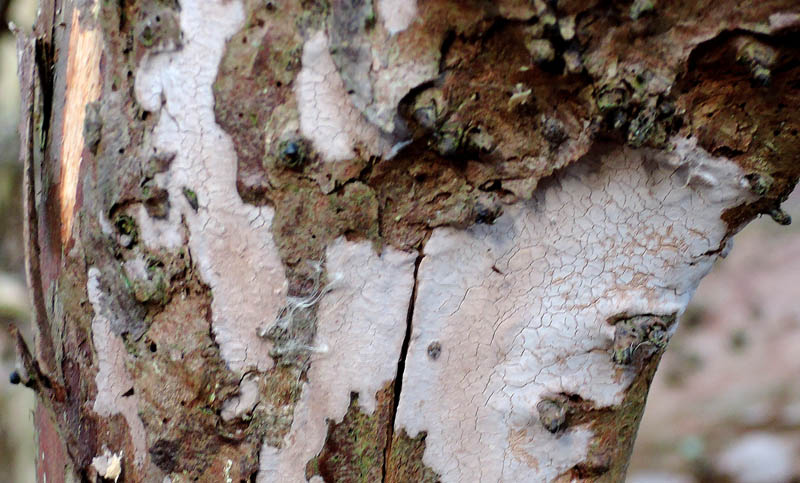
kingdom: Fungi
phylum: Basidiomycota
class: Agaricomycetes
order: Russulales
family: Echinodontiaceae
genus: Amylostereum
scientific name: Amylostereum laevigatum
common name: ene-lædersvamp
